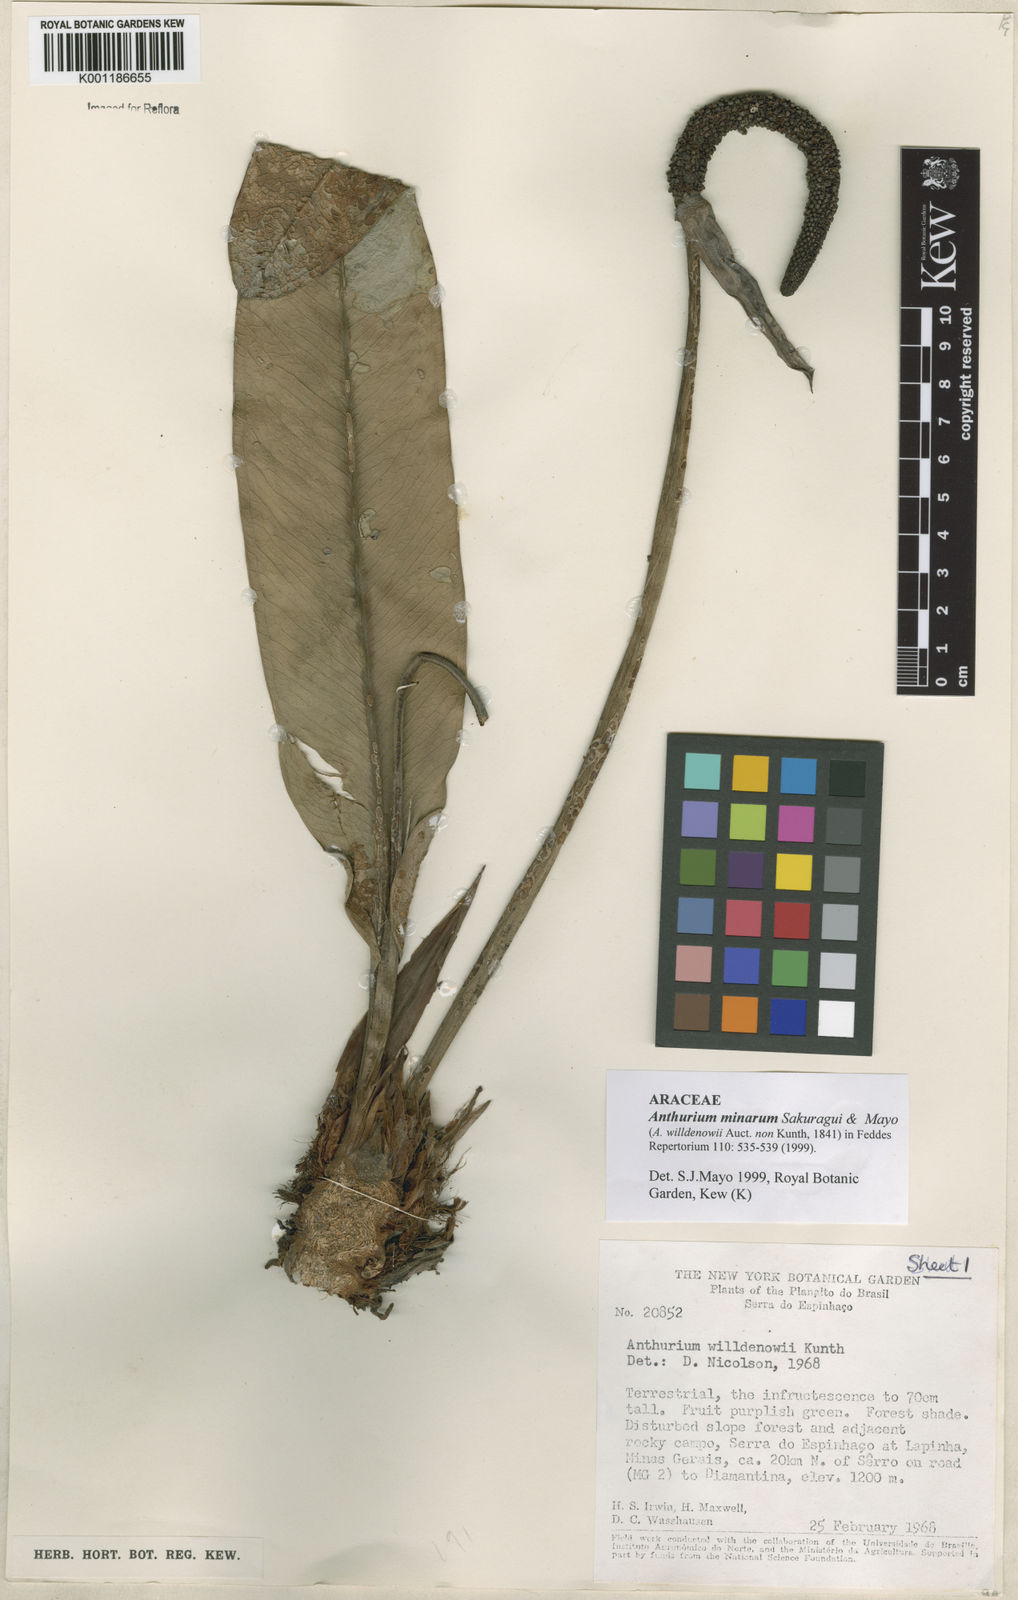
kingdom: Plantae
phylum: Tracheophyta
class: Liliopsida
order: Alismatales
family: Araceae
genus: Anthurium
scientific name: Anthurium minarum
